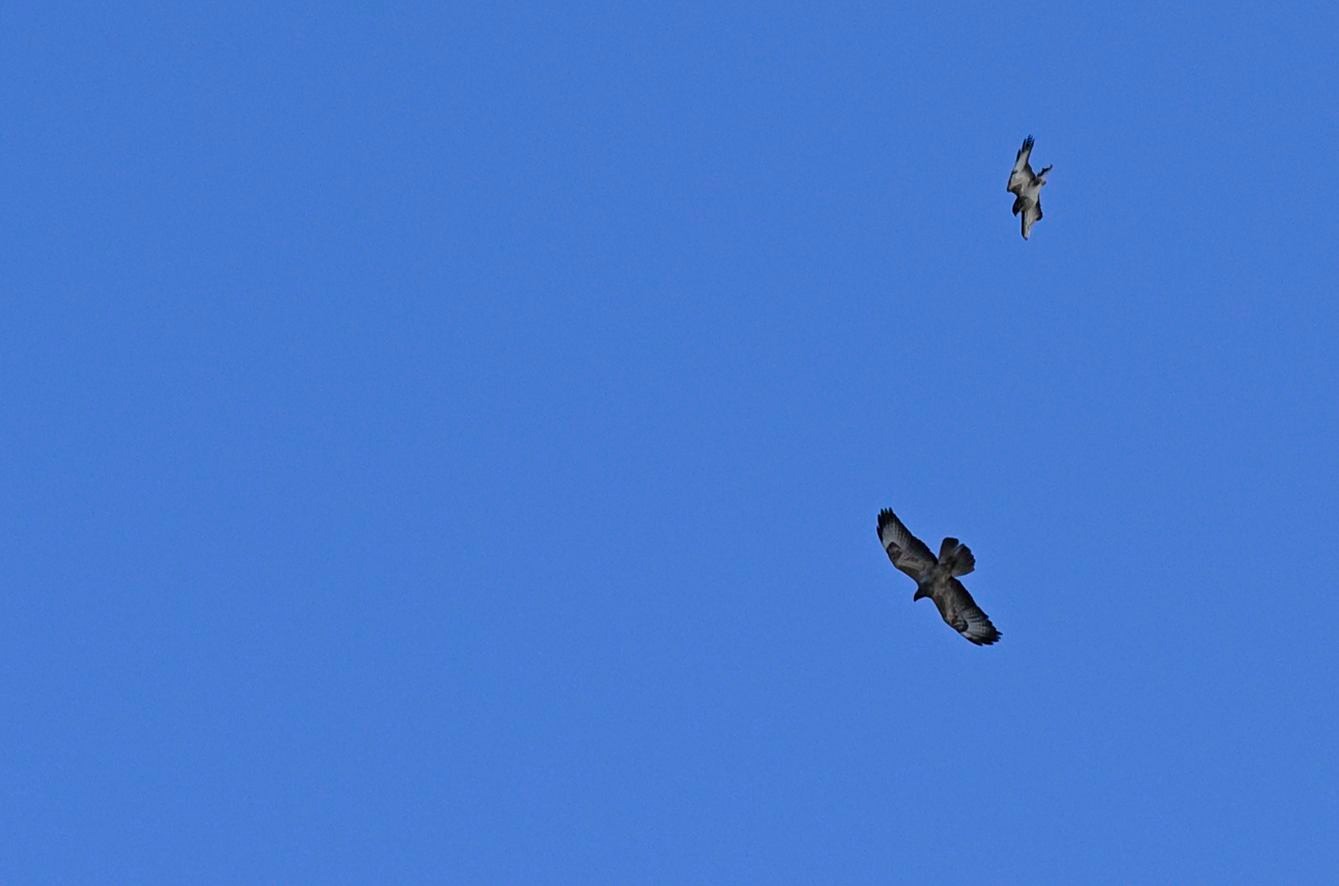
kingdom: Animalia
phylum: Chordata
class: Aves
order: Accipitriformes
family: Accipitridae
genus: Buteo
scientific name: Buteo buteo
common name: Musvåge
